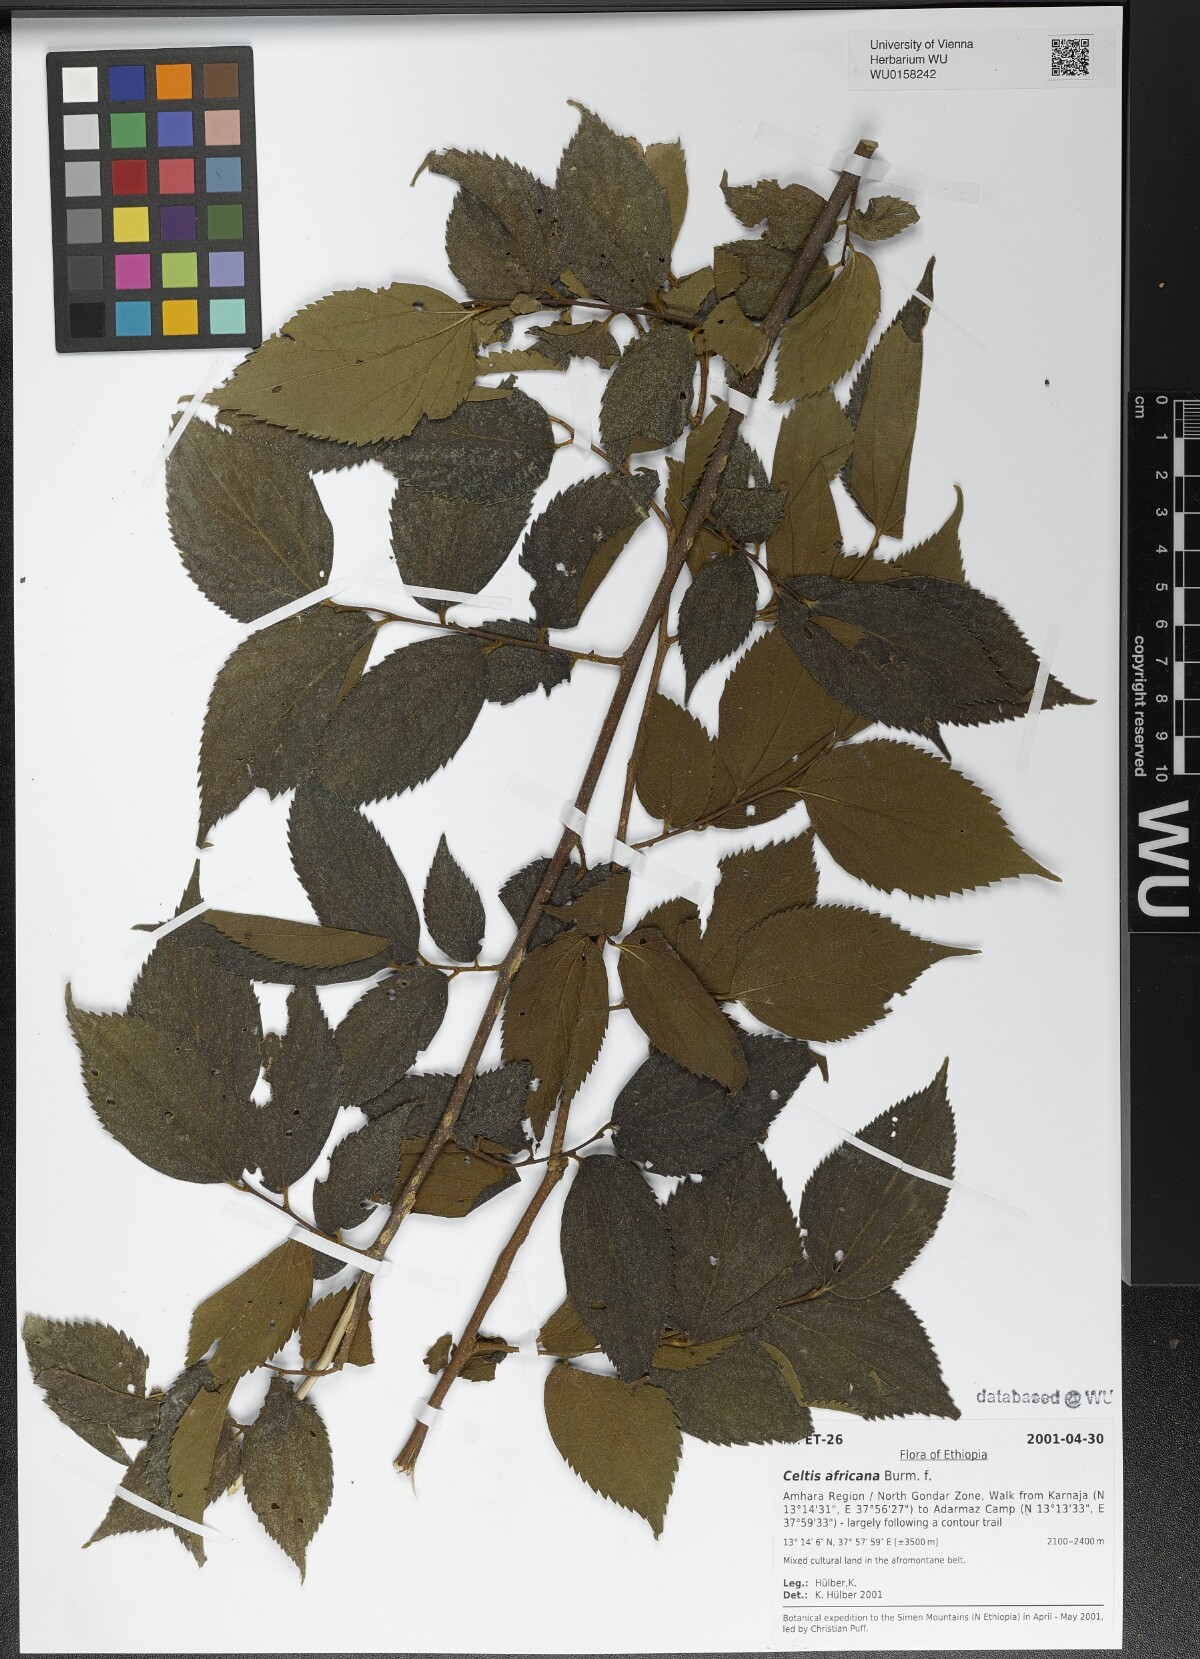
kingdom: Plantae
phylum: Tracheophyta
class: Magnoliopsida
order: Rosales
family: Ulmaceae
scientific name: Ulmaceae
